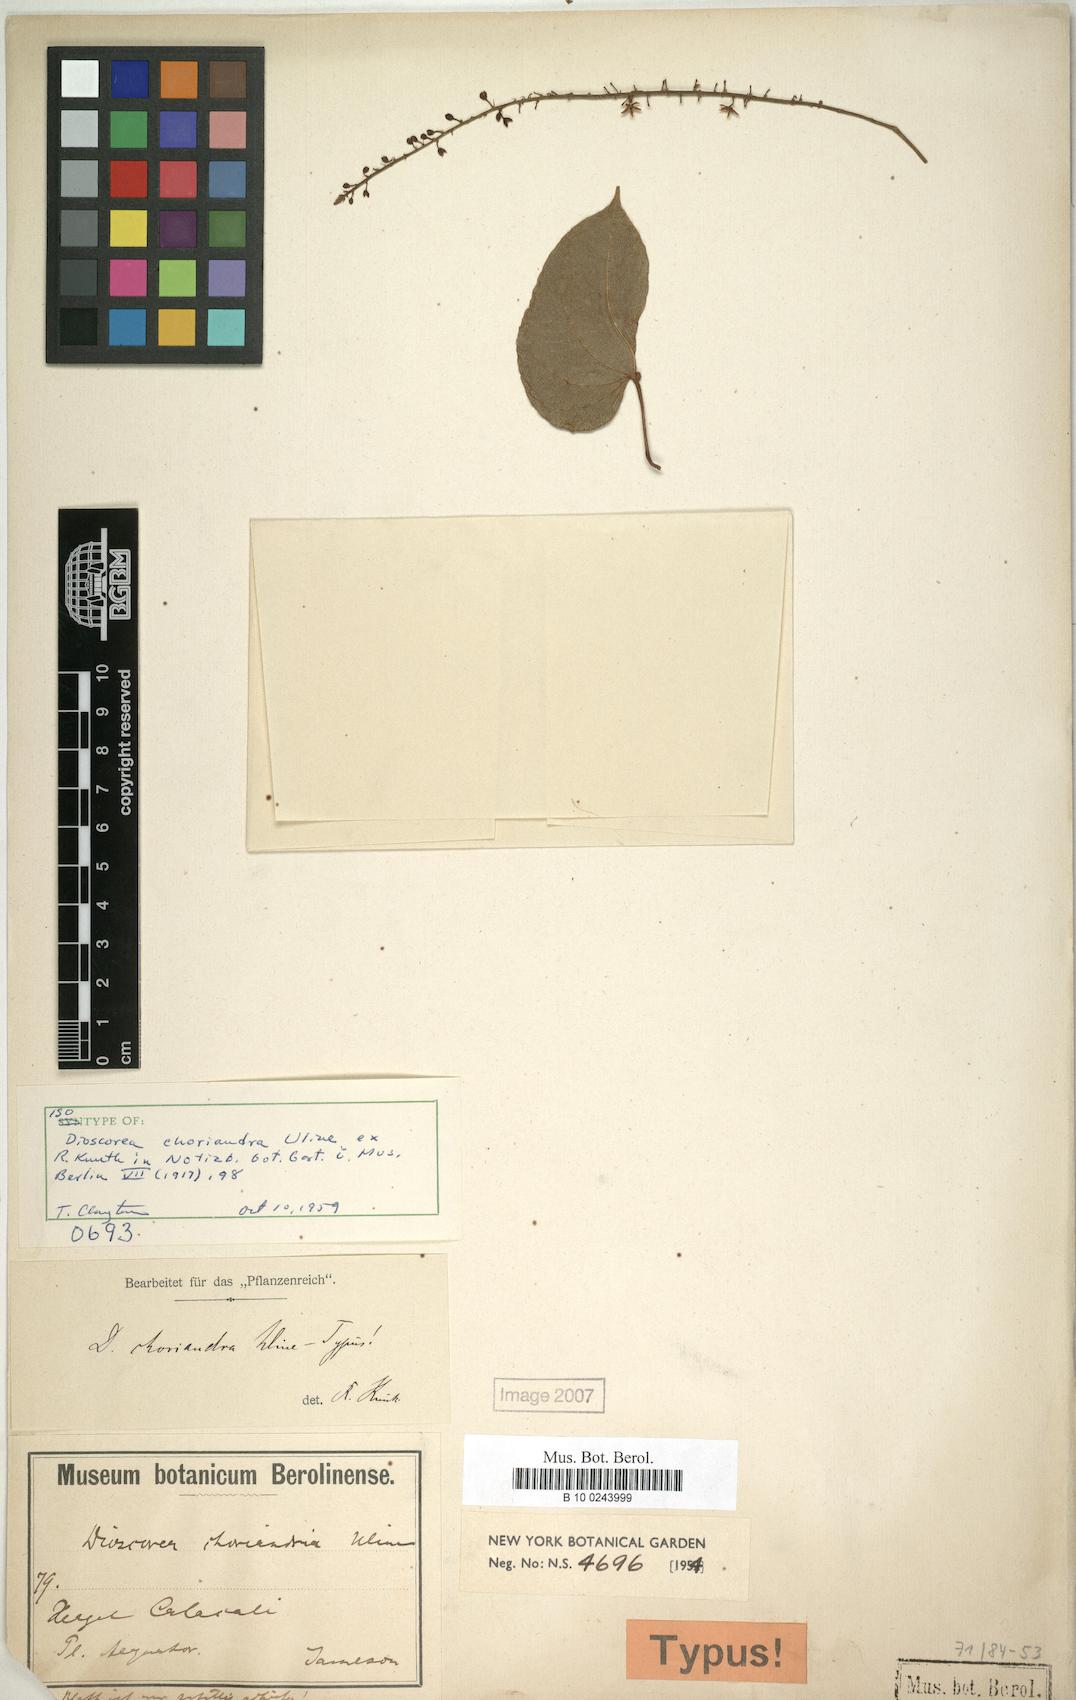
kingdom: Plantae
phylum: Tracheophyta
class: Liliopsida
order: Dioscoreales
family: Dioscoreaceae
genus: Dioscorea
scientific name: Dioscorea choriandra
